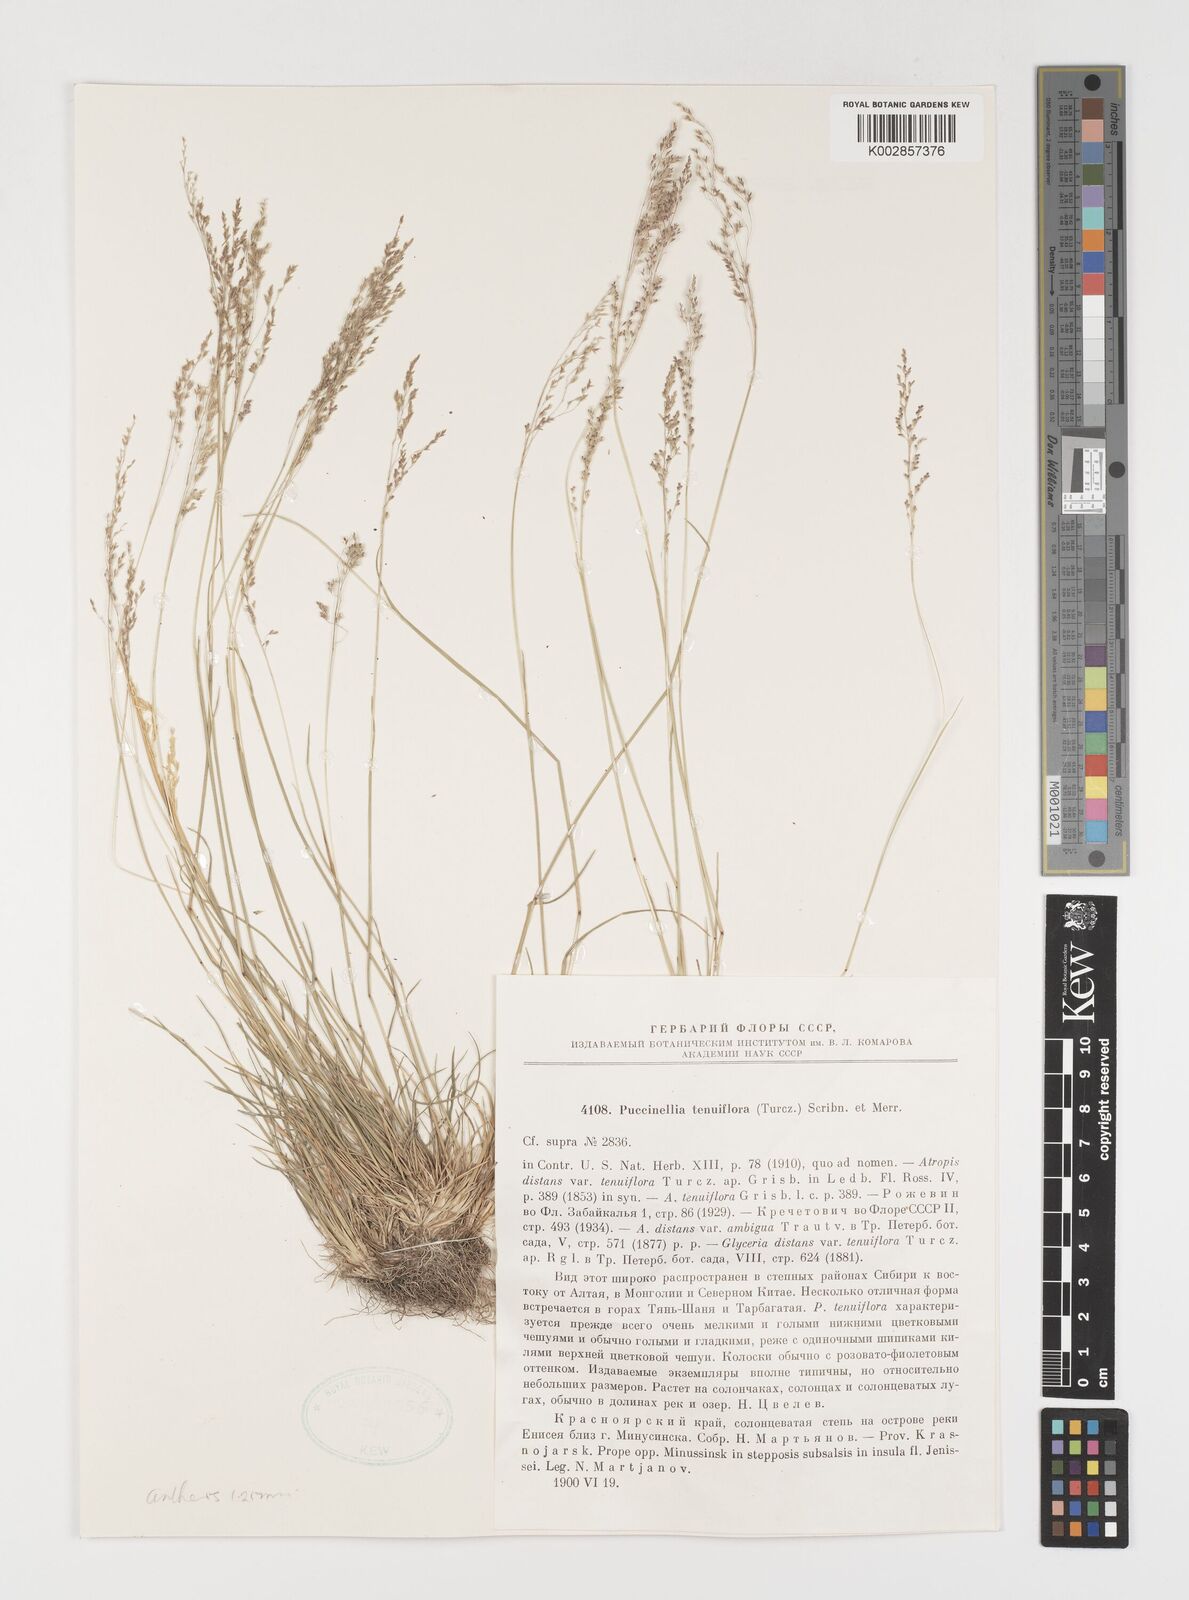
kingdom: Plantae
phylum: Tracheophyta
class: Liliopsida
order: Poales
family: Poaceae
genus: Puccinellia
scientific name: Puccinellia tenuiflora
